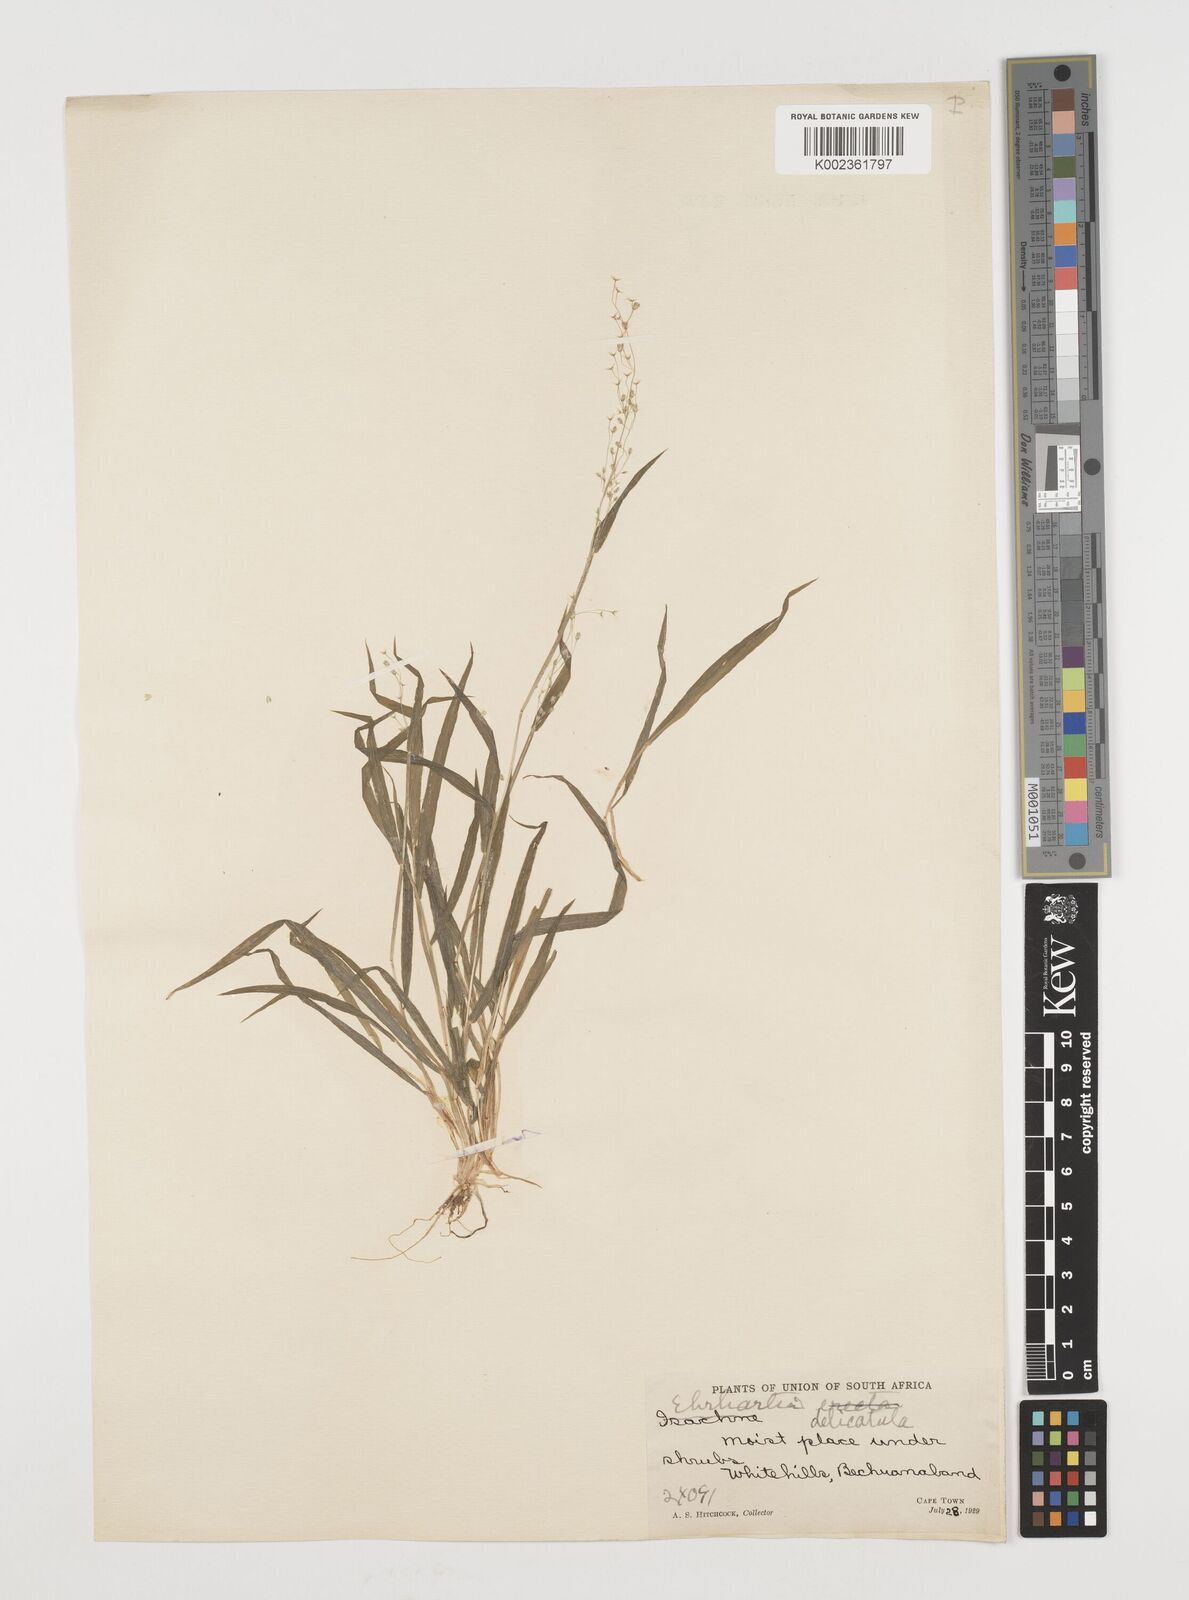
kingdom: Plantae
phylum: Tracheophyta
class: Liliopsida
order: Poales
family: Poaceae
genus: Ehrharta
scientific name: Ehrharta delicatula
